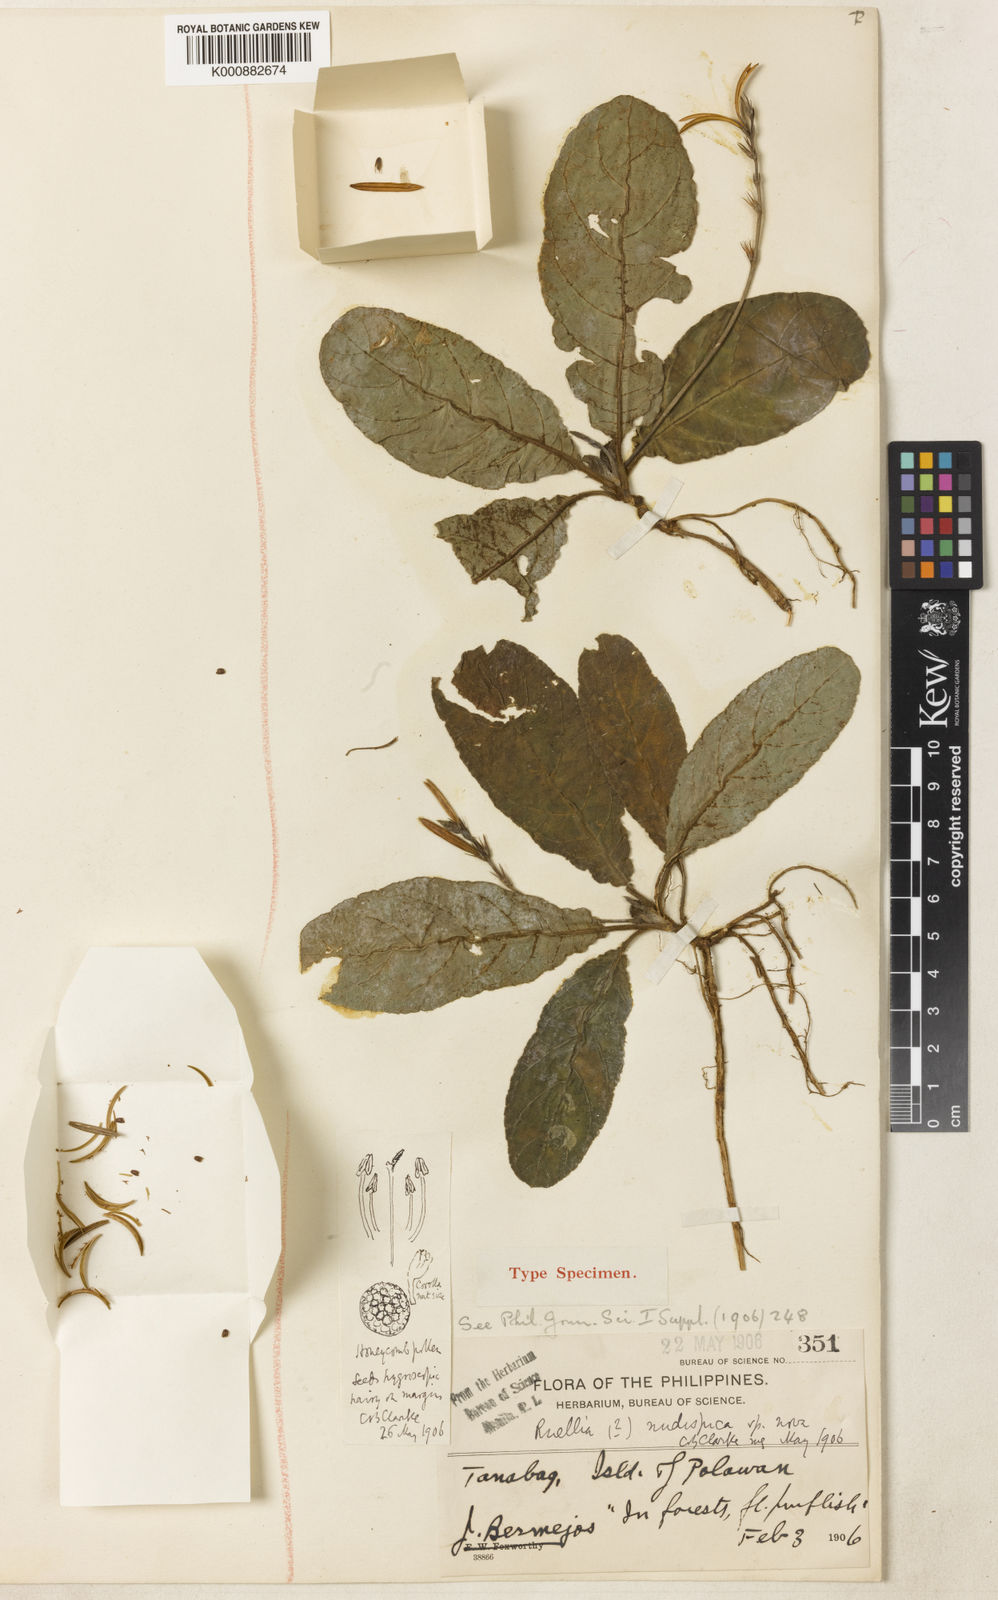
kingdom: Plantae
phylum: Tracheophyta
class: Magnoliopsida
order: Lamiales
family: Acanthaceae
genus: Pararuellia
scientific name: Pararuellia nudispica
